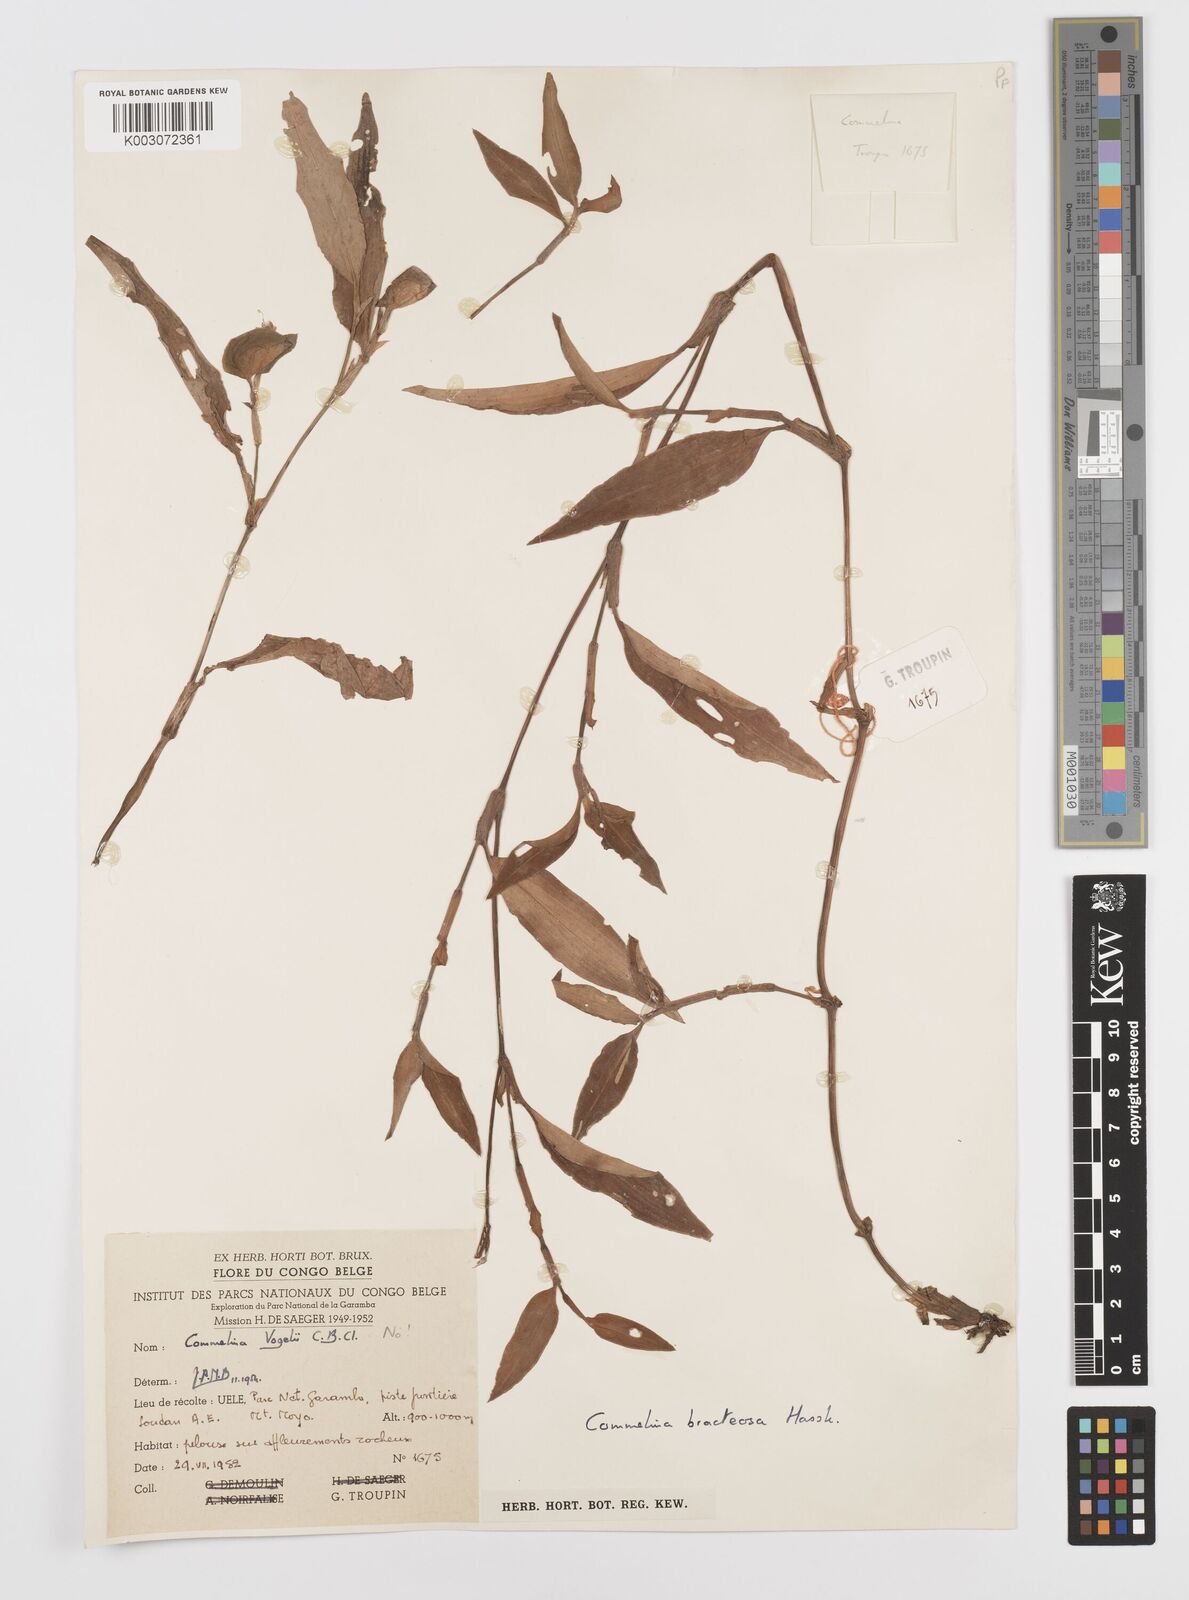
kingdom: Plantae
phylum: Tracheophyta
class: Liliopsida
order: Commelinales
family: Commelinaceae
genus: Commelina
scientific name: Commelina bracteosa
